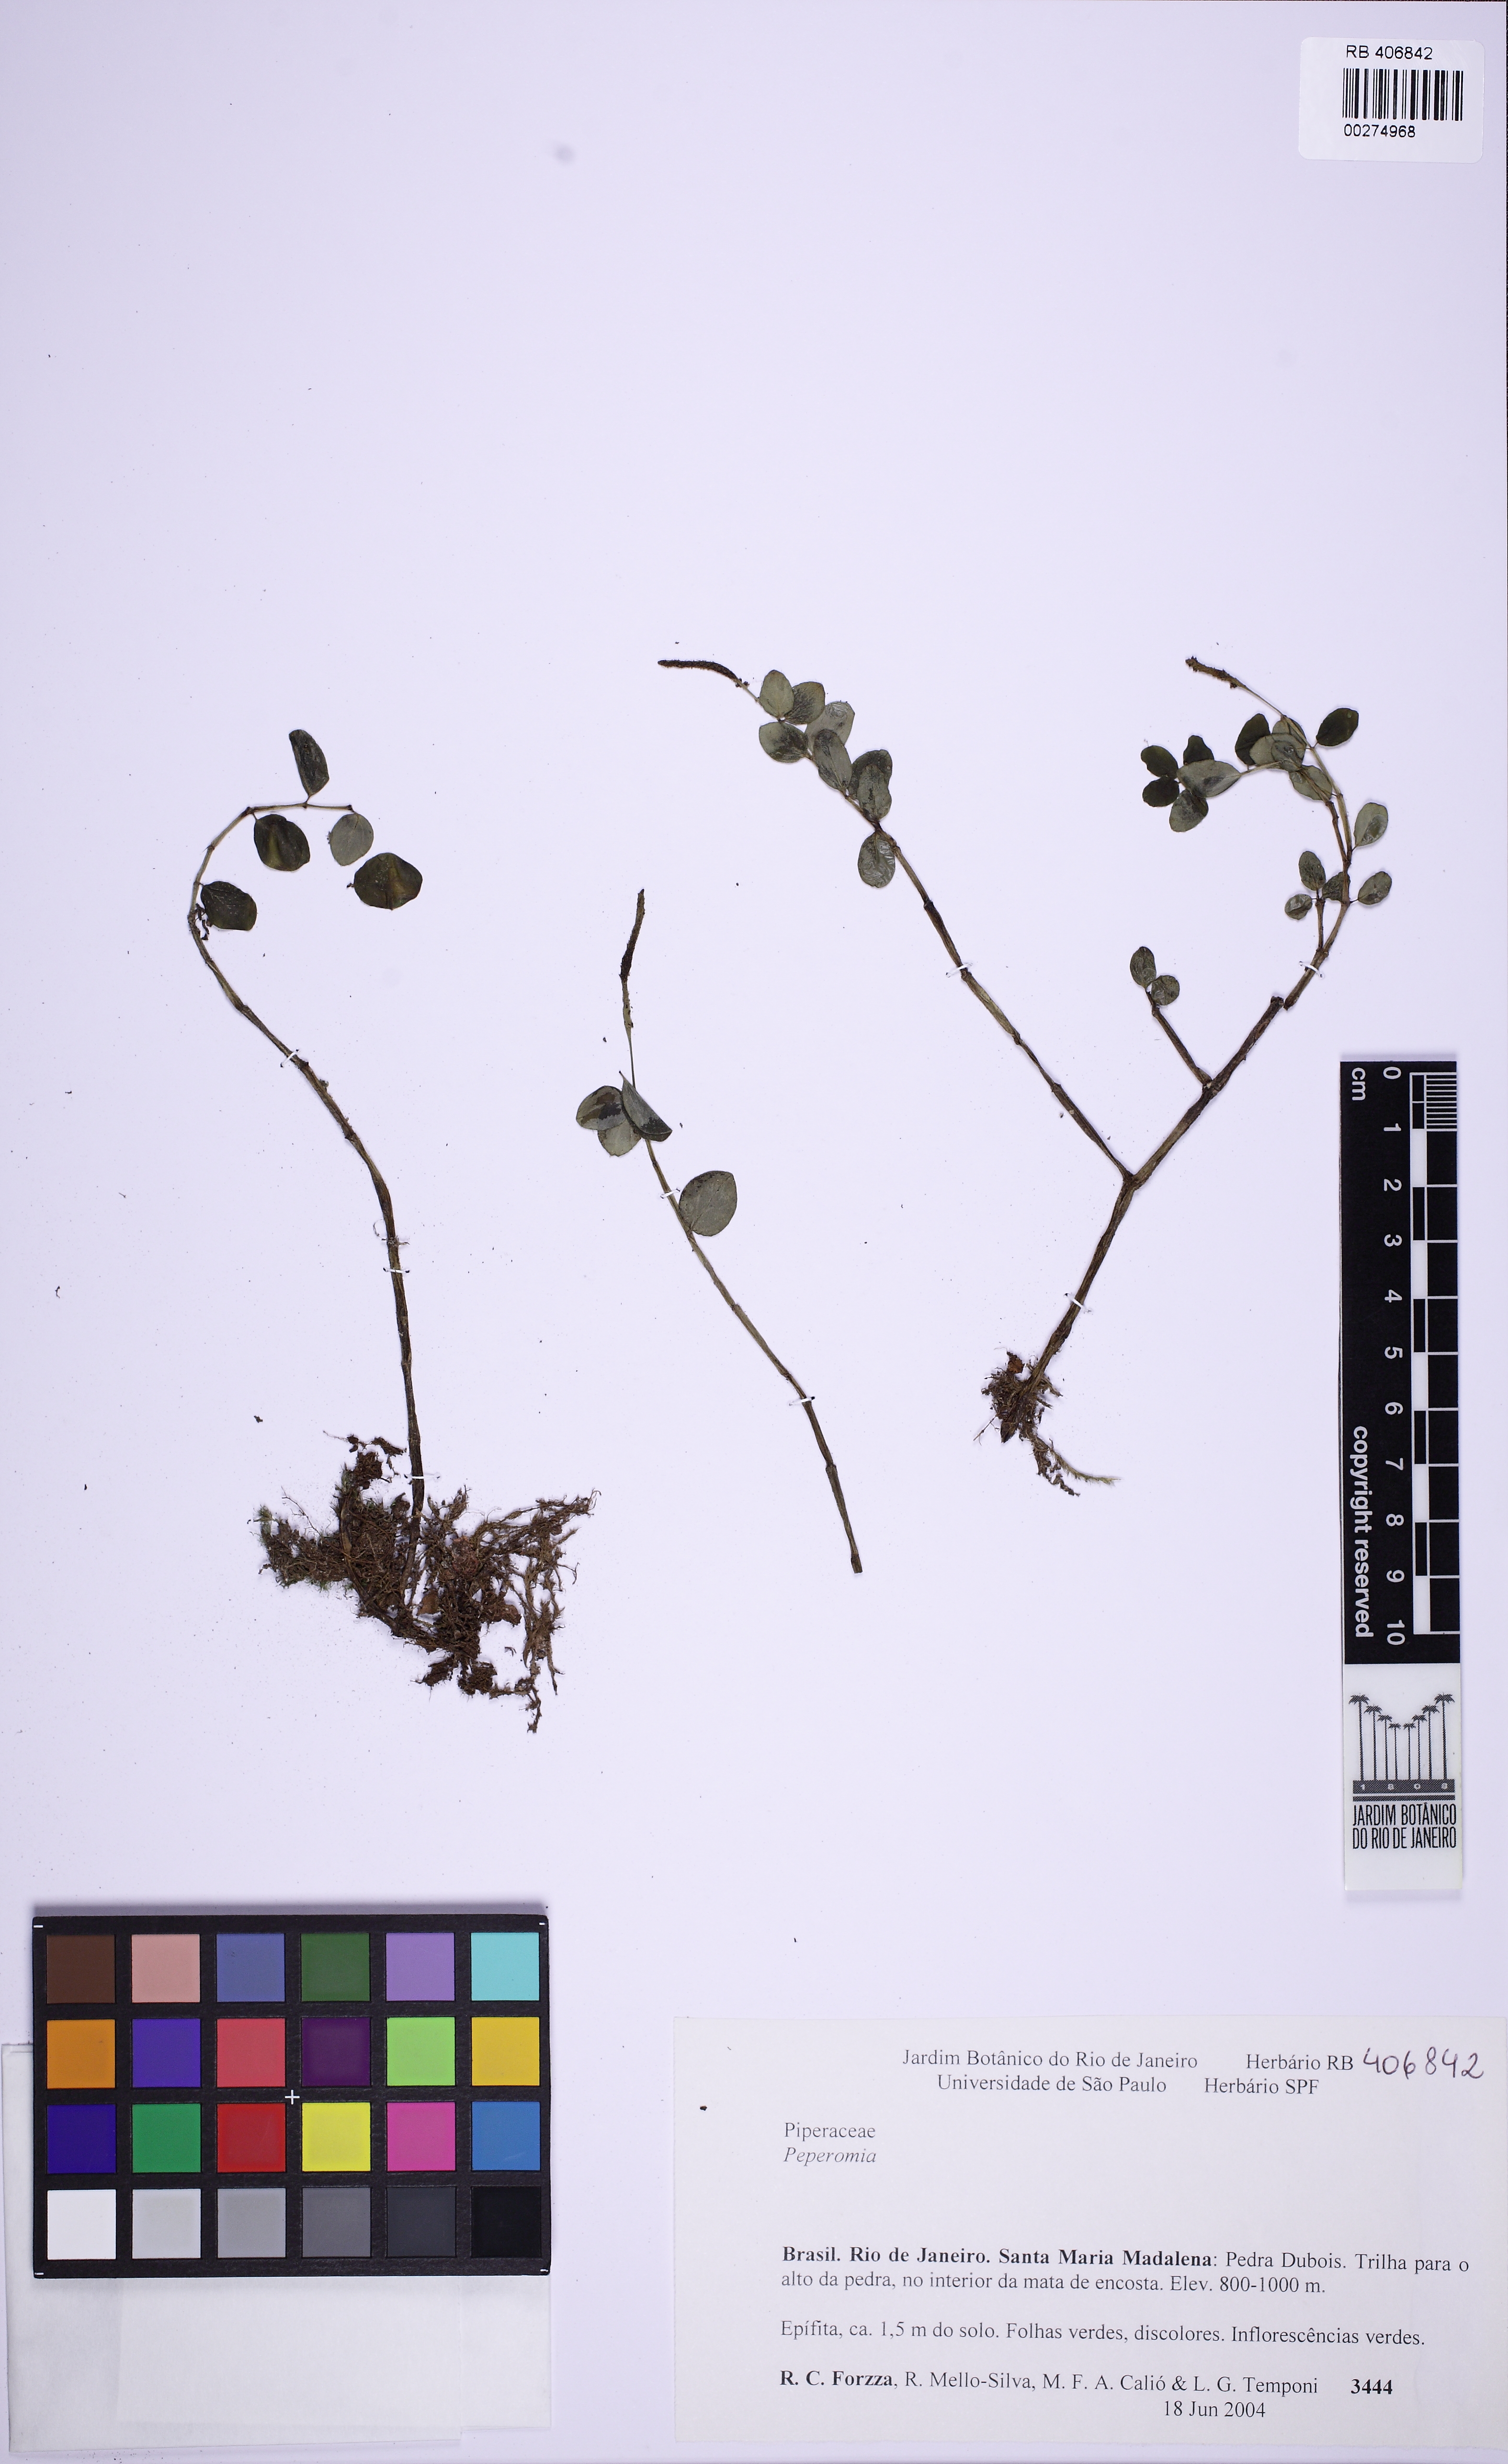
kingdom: Plantae
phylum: Tracheophyta
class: Magnoliopsida
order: Piperales
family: Piperaceae
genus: Peperomia
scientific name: Peperomia subternifolia
